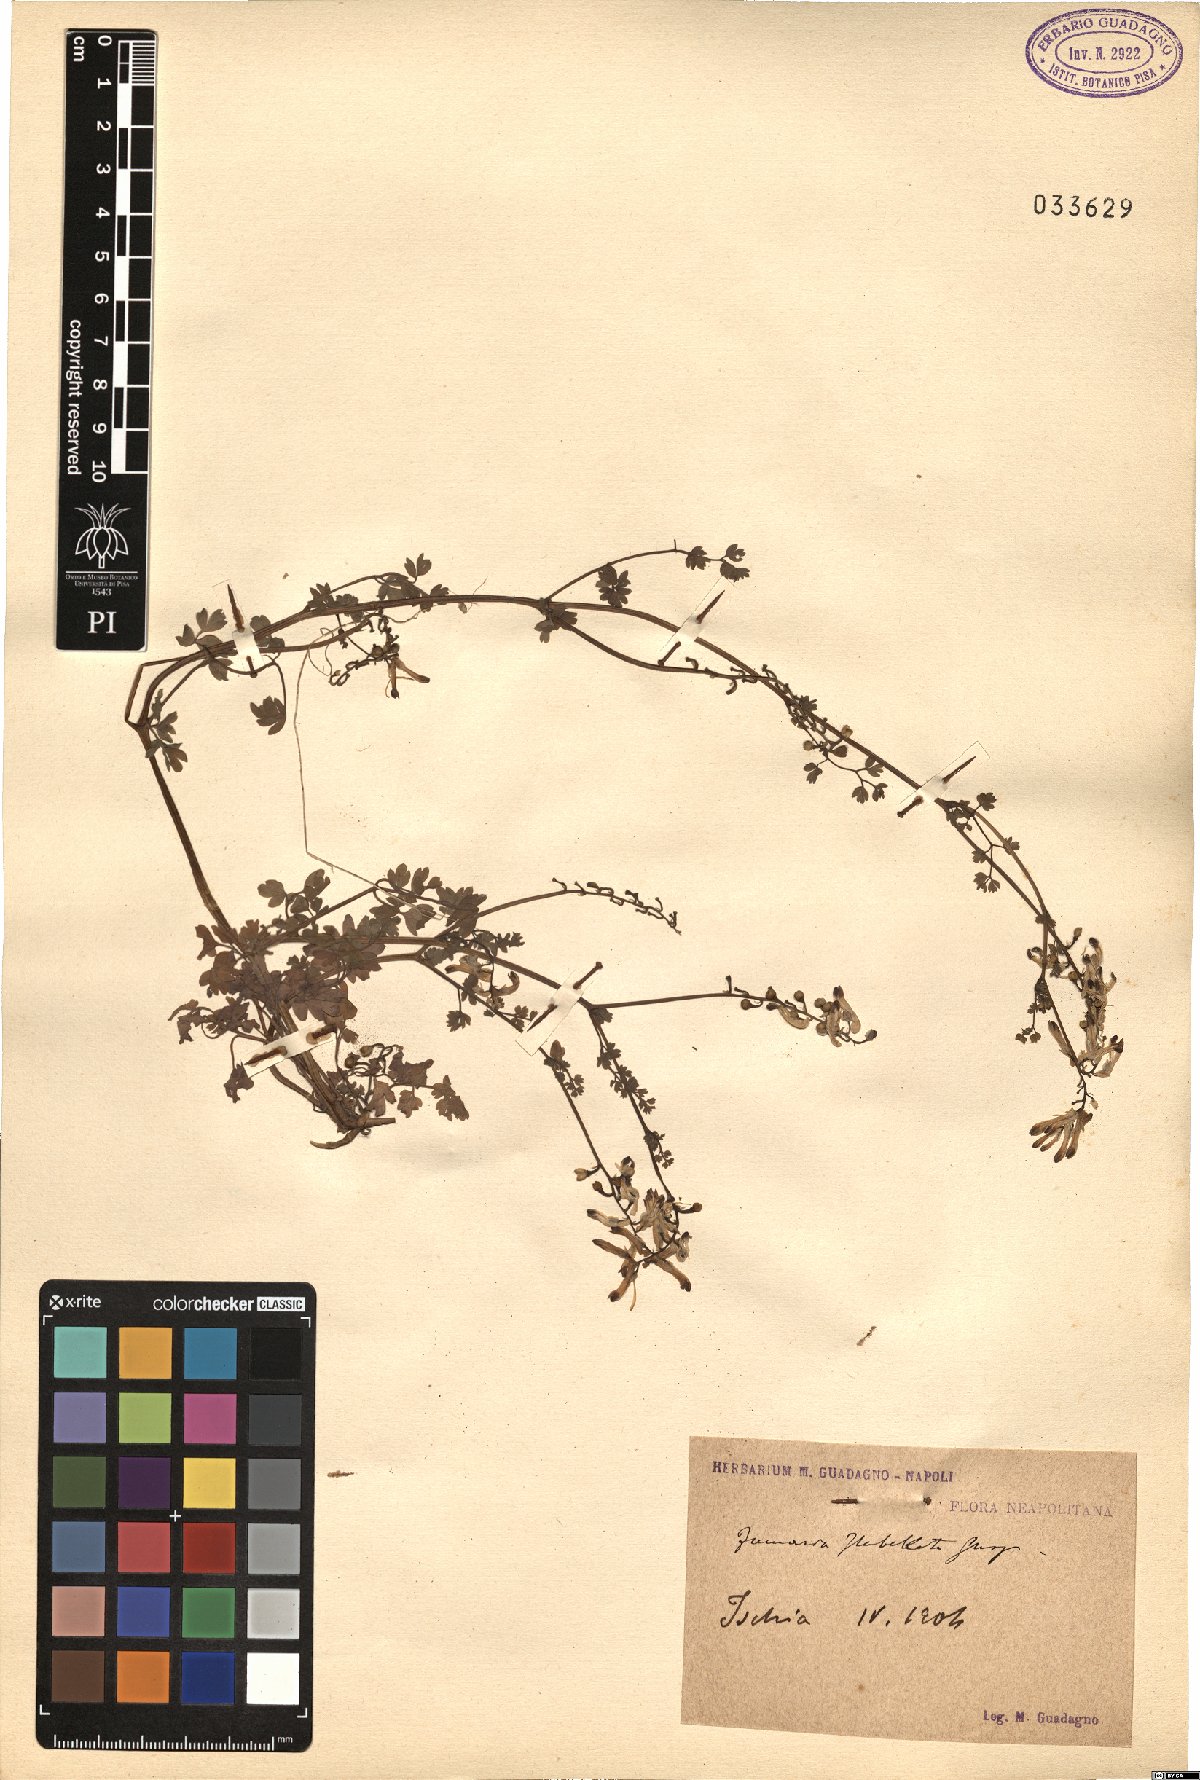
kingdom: Plantae
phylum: Tracheophyta
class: Magnoliopsida
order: Ranunculales
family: Papaveraceae
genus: Fumaria
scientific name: Fumaria flabellata
